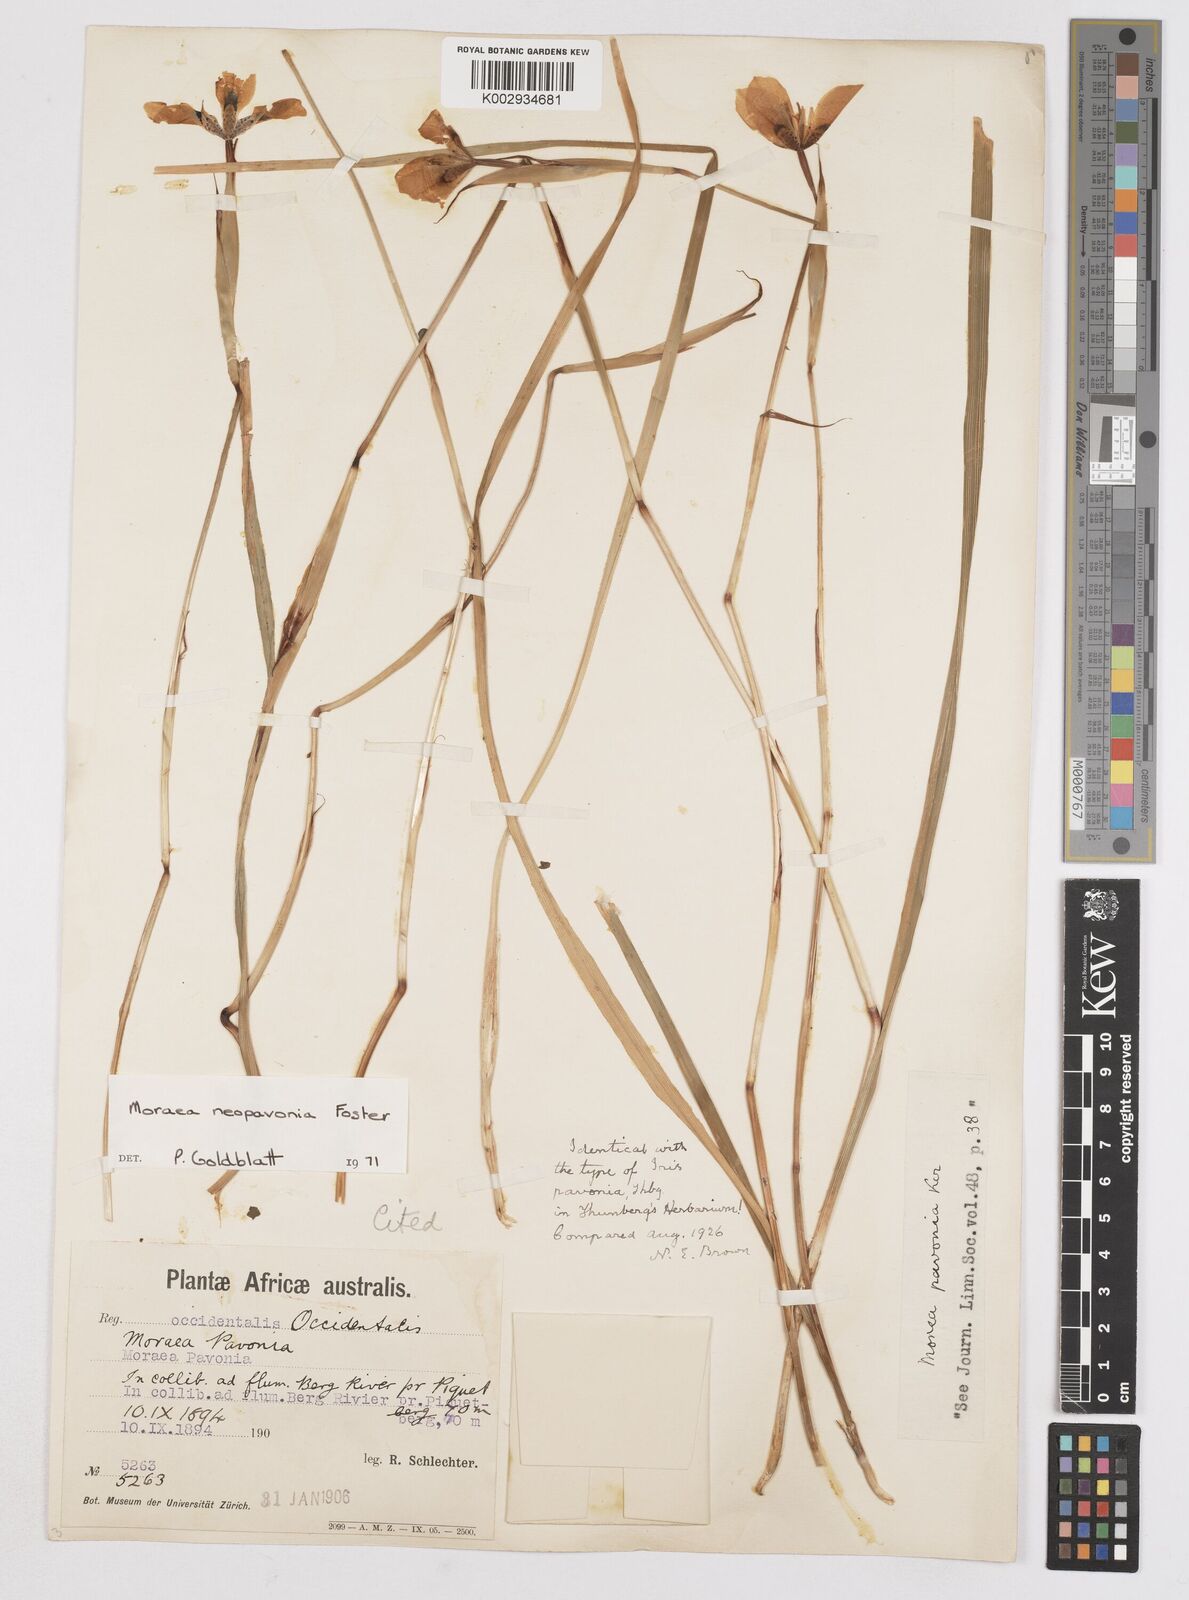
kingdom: Plantae
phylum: Tracheophyta
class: Liliopsida
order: Asparagales
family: Iridaceae
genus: Moraea
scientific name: Moraea tulbaghensis
